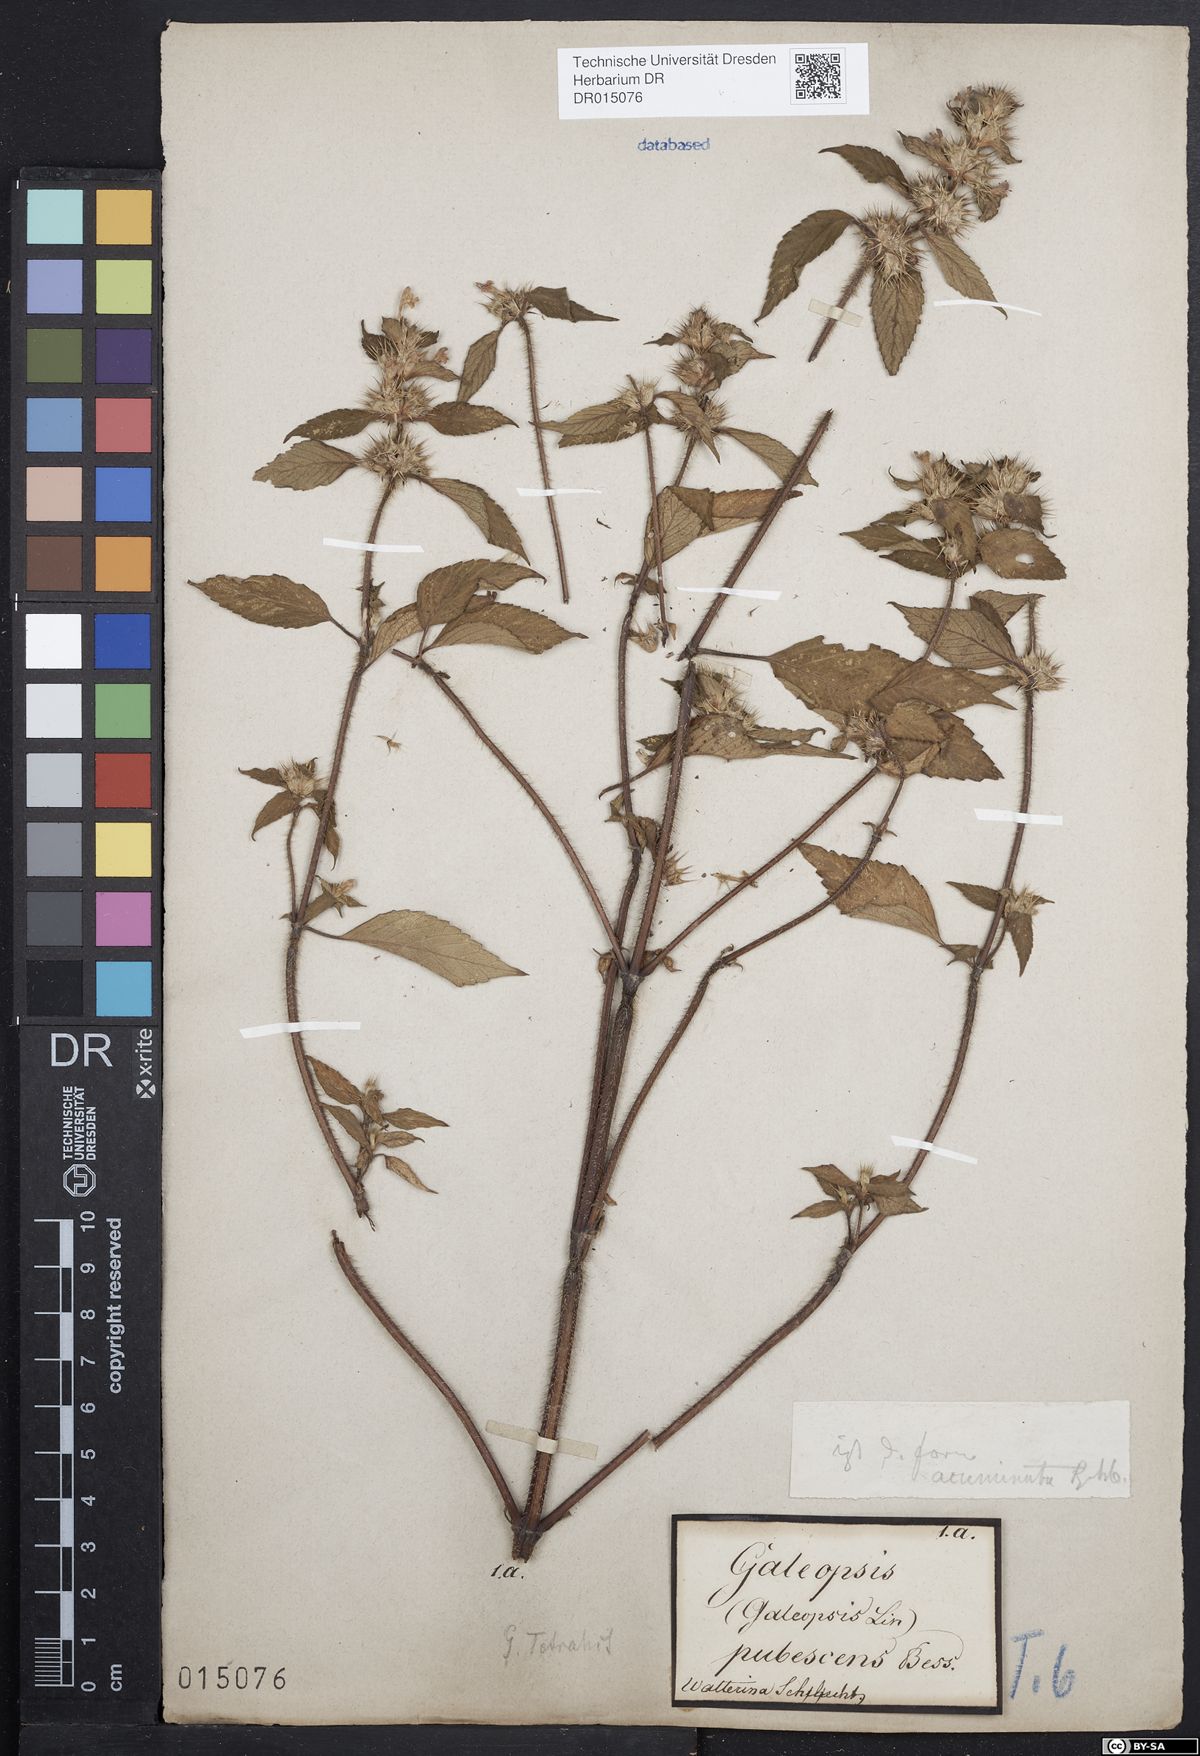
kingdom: Plantae
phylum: Tracheophyta
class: Magnoliopsida
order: Lamiales
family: Lamiaceae
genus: Galeopsis
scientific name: Galeopsis tetrahit
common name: Common hemp-nettle
